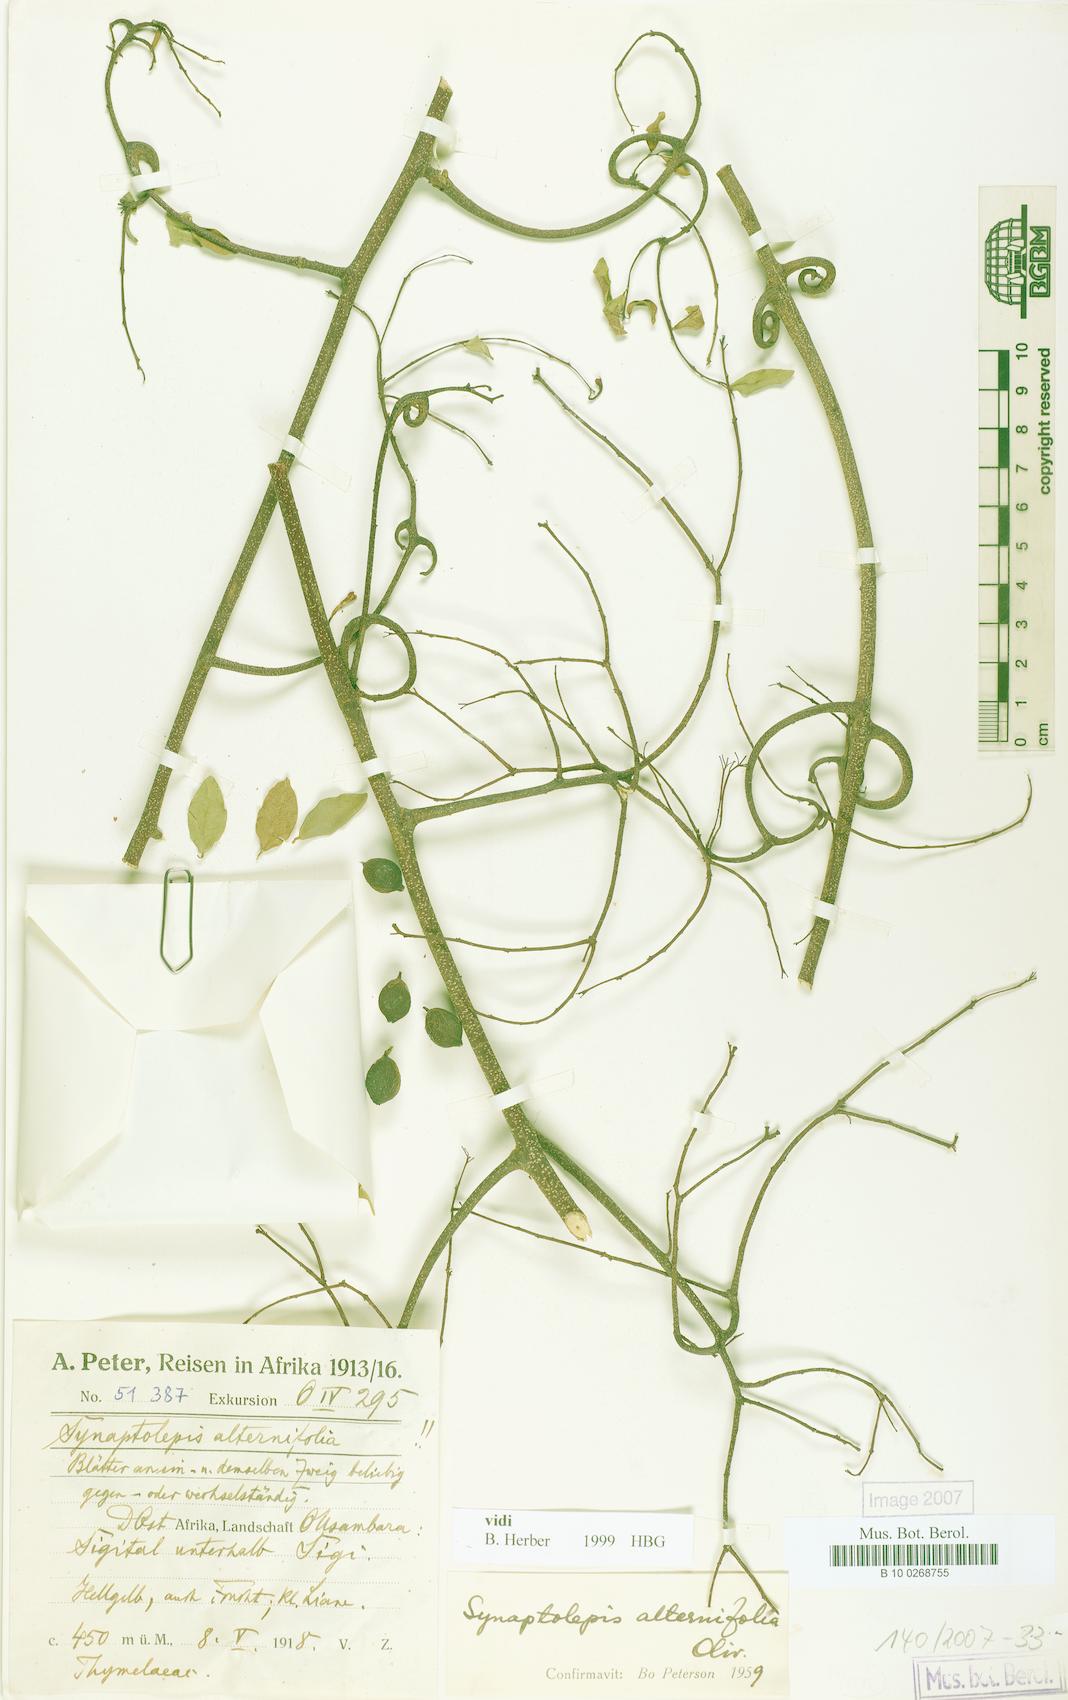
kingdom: Plantae
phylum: Tracheophyta
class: Magnoliopsida
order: Malvales
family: Thymelaeaceae
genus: Synaptolepis
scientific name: Synaptolepis alternifolia
